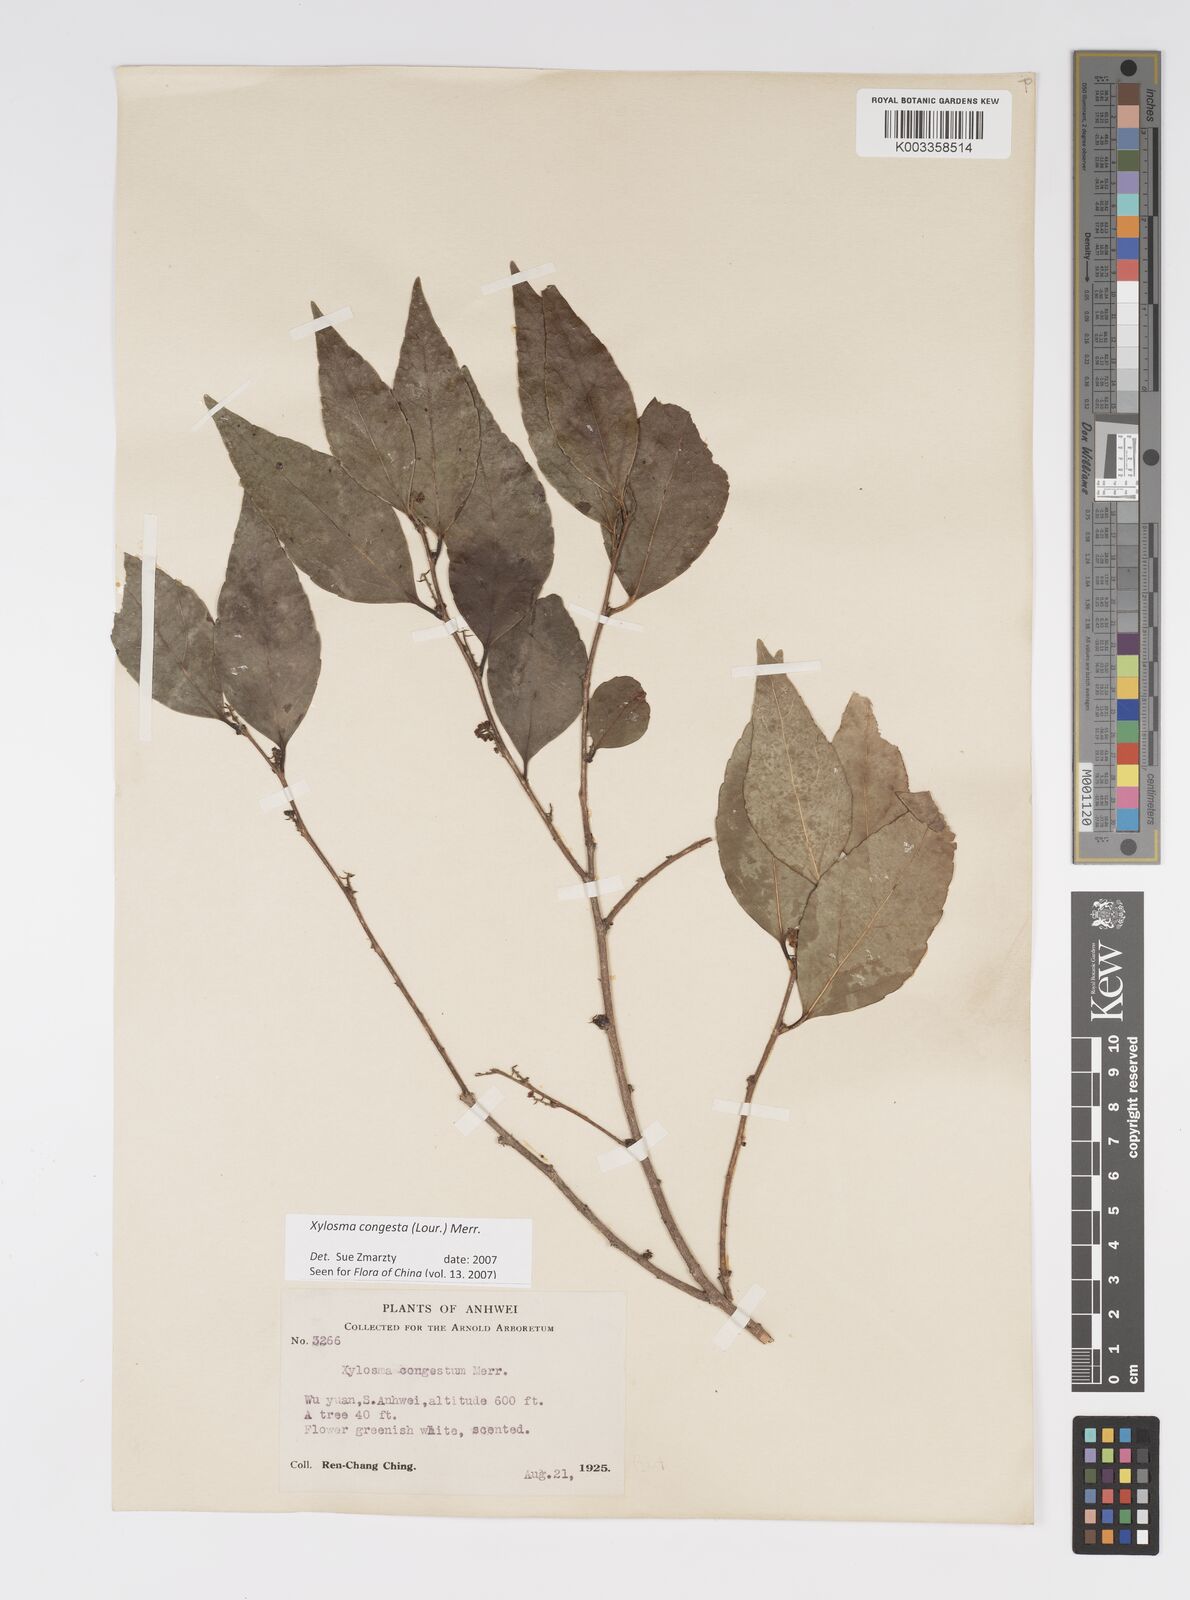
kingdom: Plantae
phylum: Tracheophyta
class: Magnoliopsida
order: Malpighiales
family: Salicaceae
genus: Xylosma
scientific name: Xylosma racemosum
